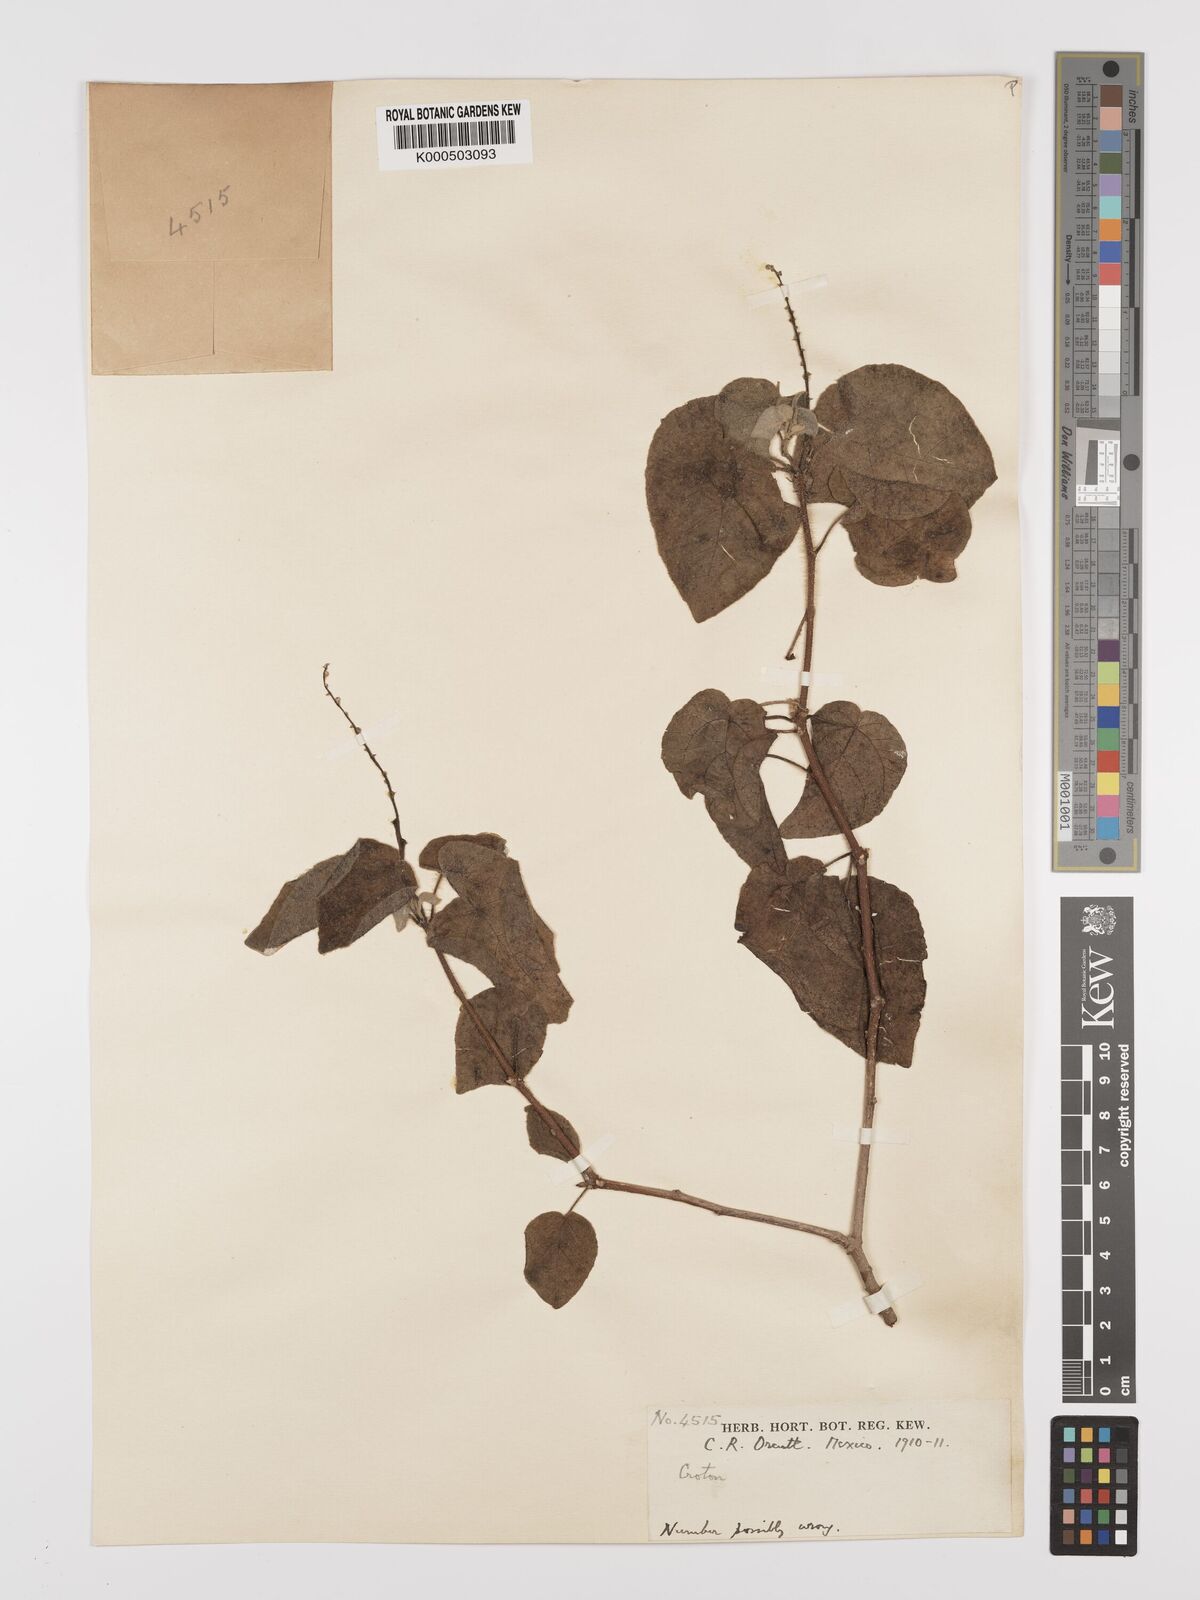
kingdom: Plantae
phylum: Tracheophyta
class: Magnoliopsida
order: Malpighiales
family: Euphorbiaceae
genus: Croton
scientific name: Croton
